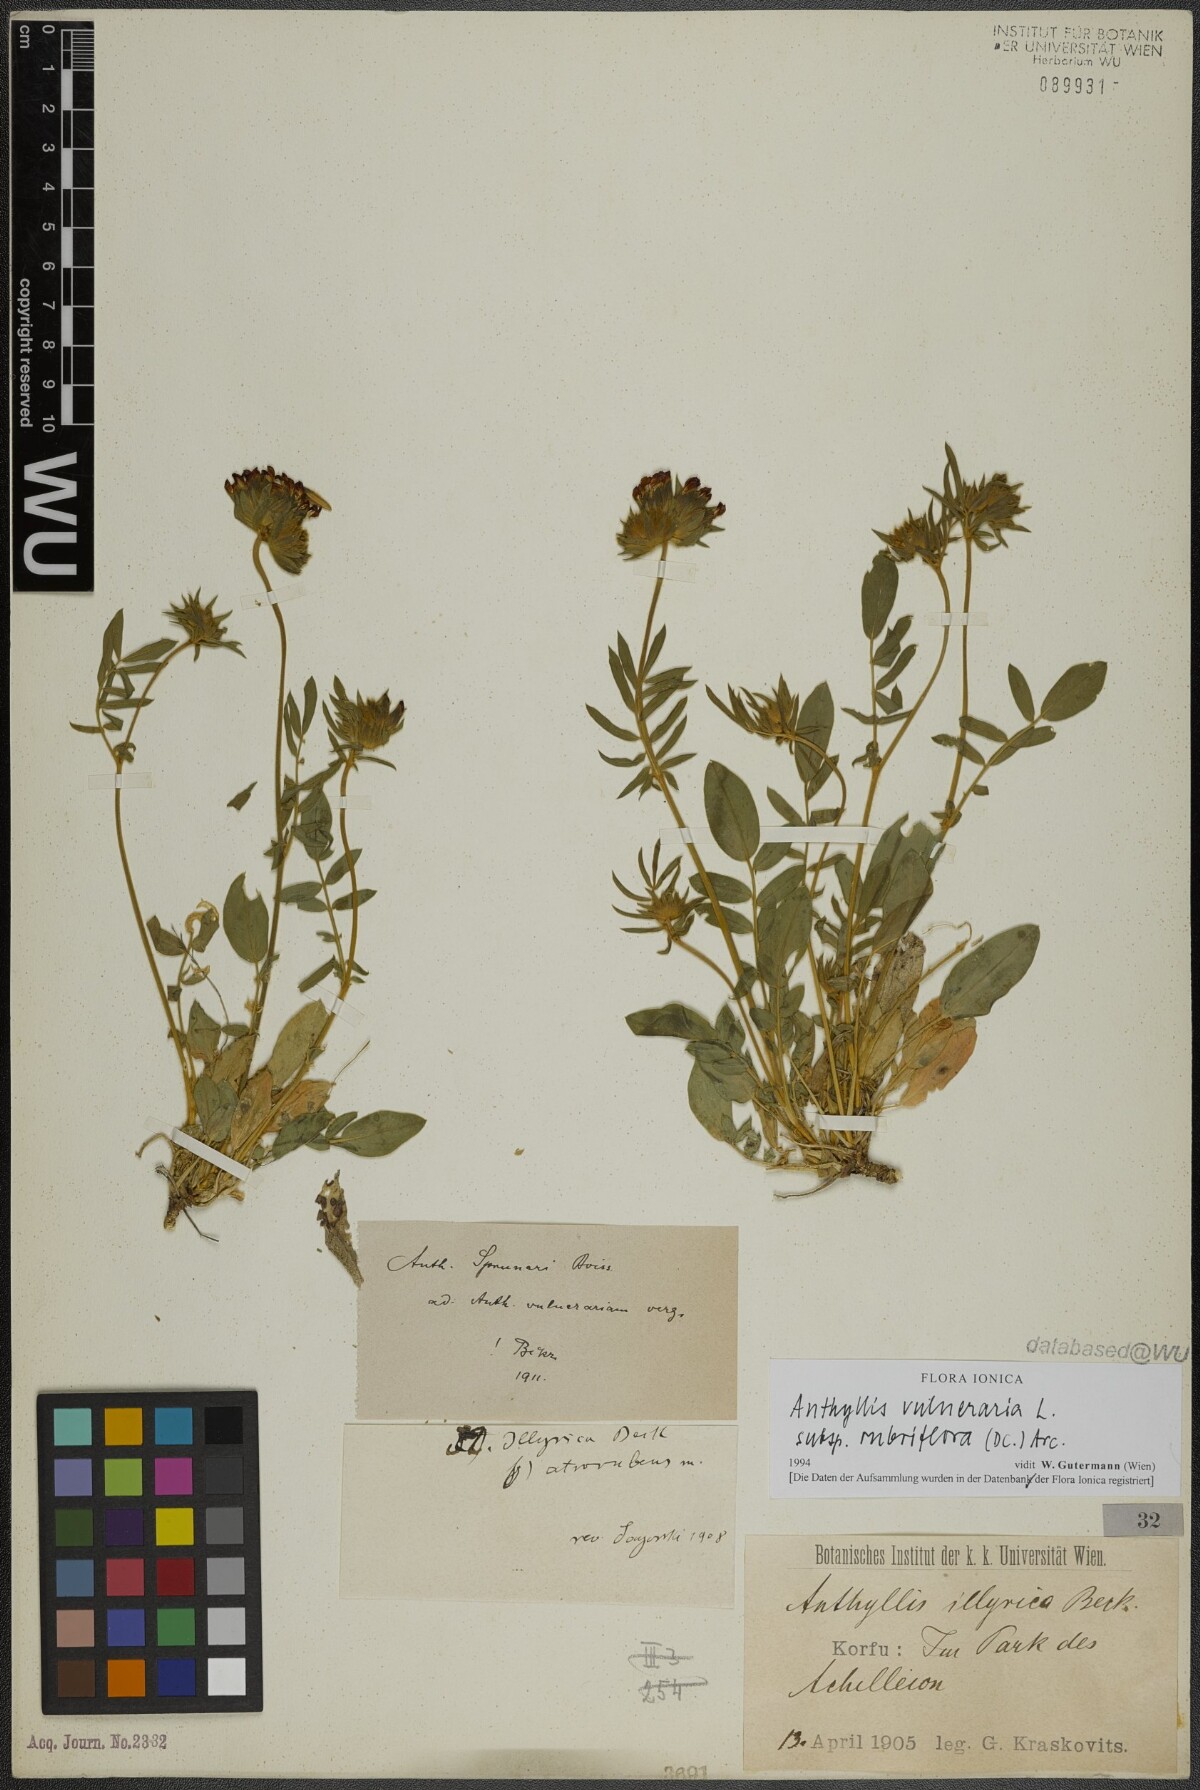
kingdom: Plantae
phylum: Tracheophyta
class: Magnoliopsida
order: Fabales
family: Fabaceae
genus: Anthyllis
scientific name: Anthyllis vulneraria
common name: Kidney vetch
